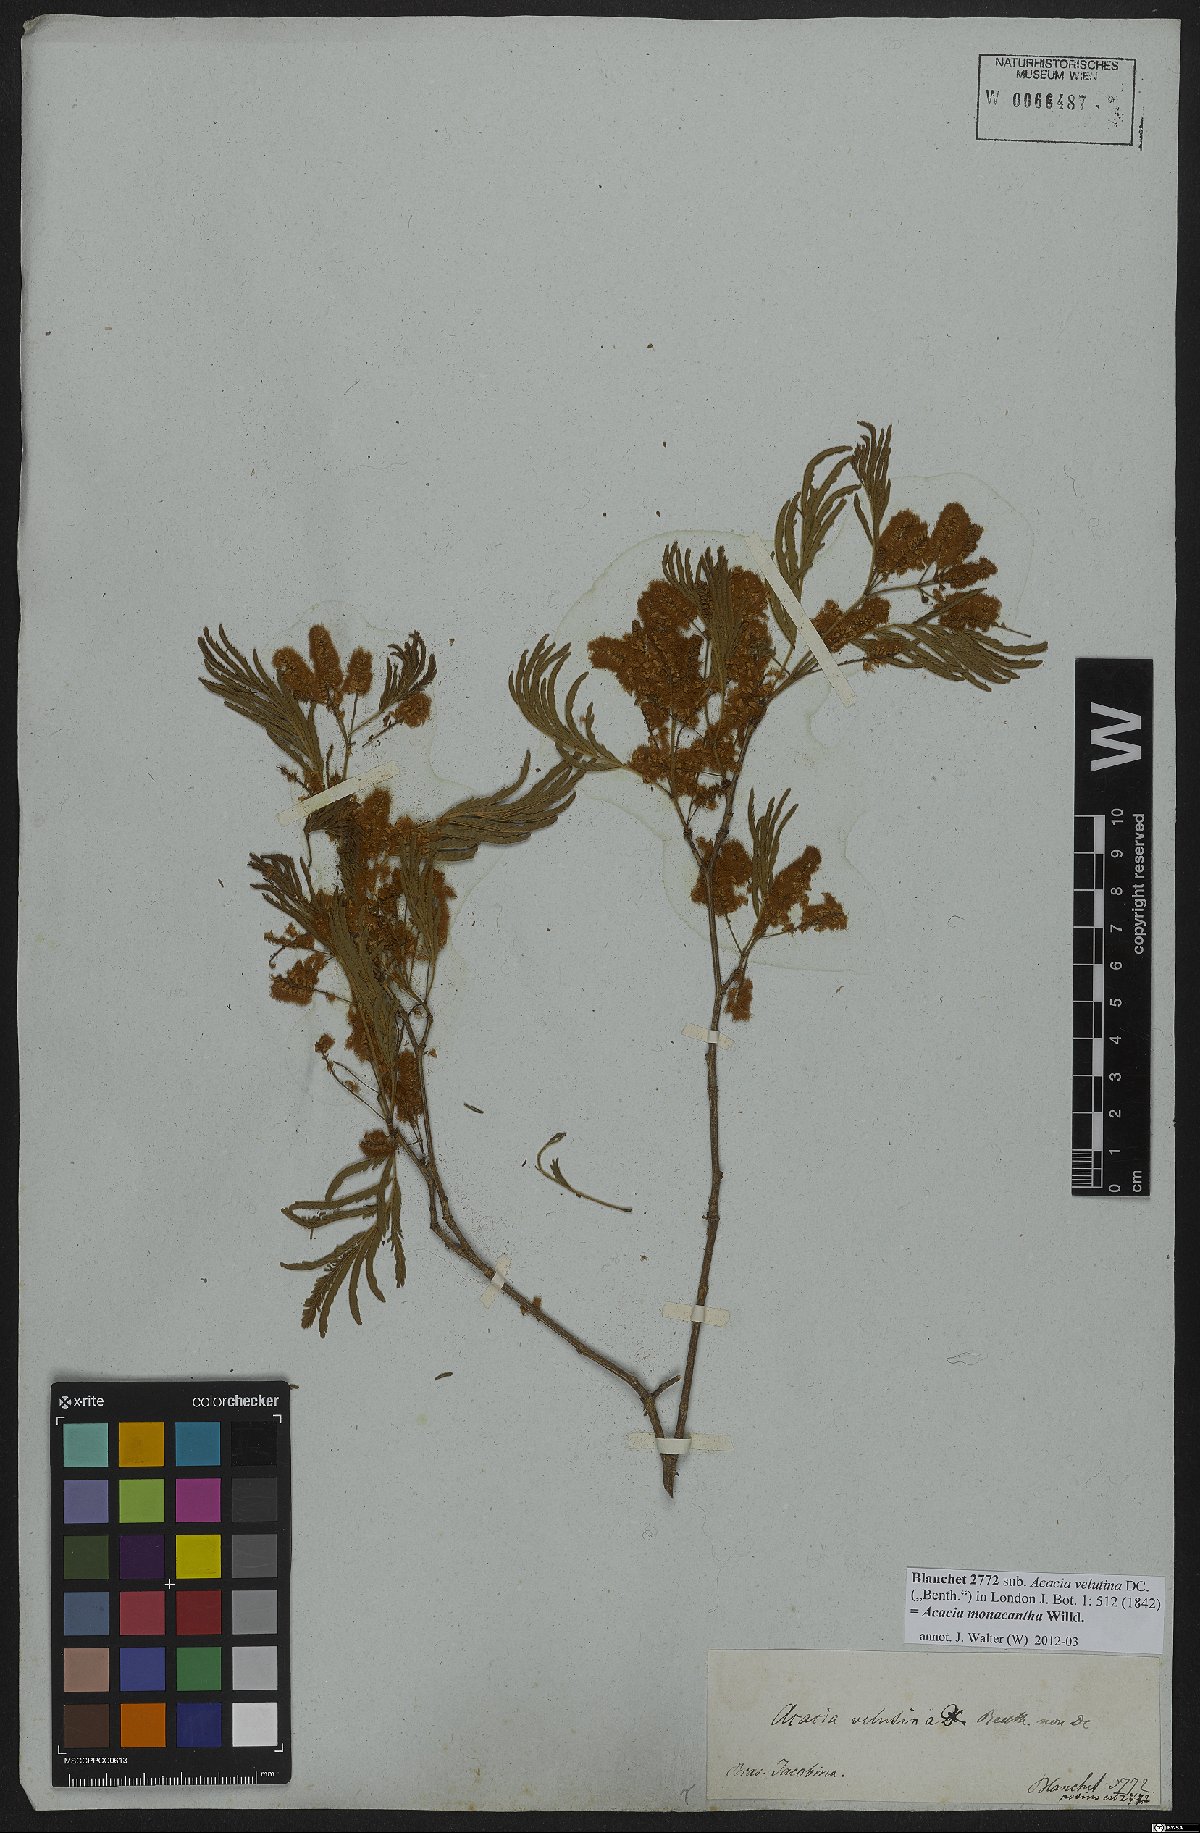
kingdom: Plantae
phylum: Tracheophyta
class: Magnoliopsida
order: Fabales
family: Fabaceae
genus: Senegalia
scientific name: Senegalia monacantha
